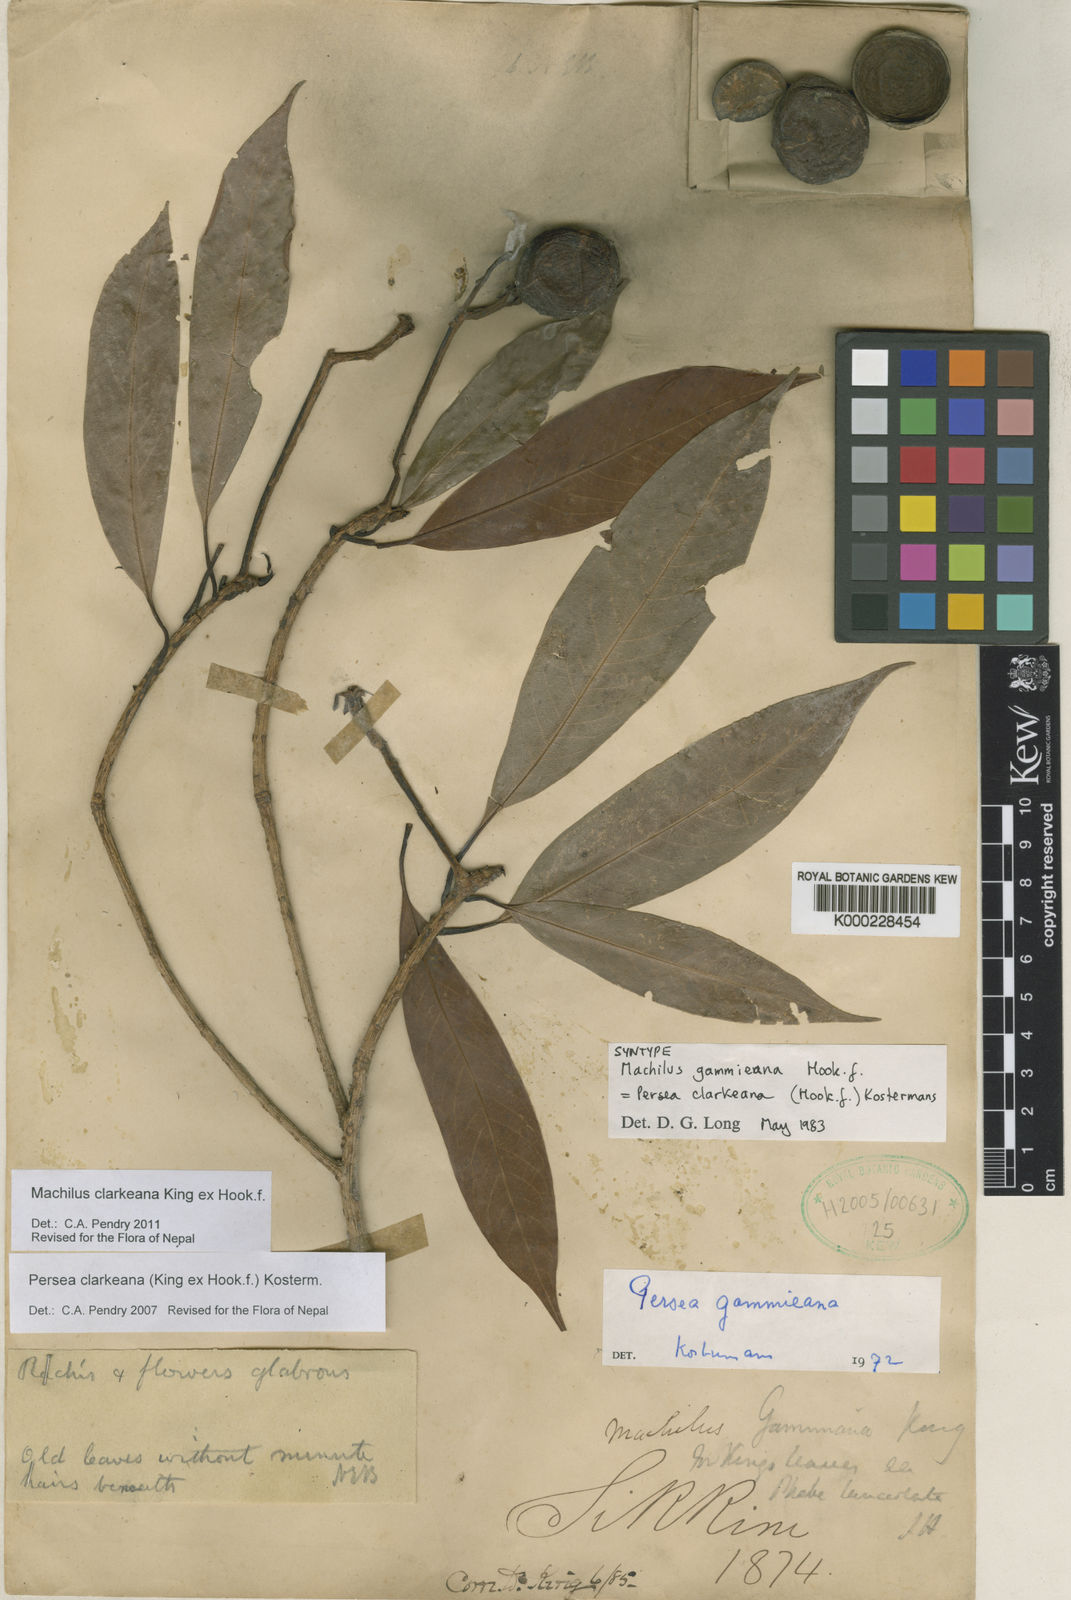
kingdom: Plantae
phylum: Tracheophyta
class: Magnoliopsida
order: Laurales
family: Lauraceae
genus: Machilus
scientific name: Machilus clarkeana
